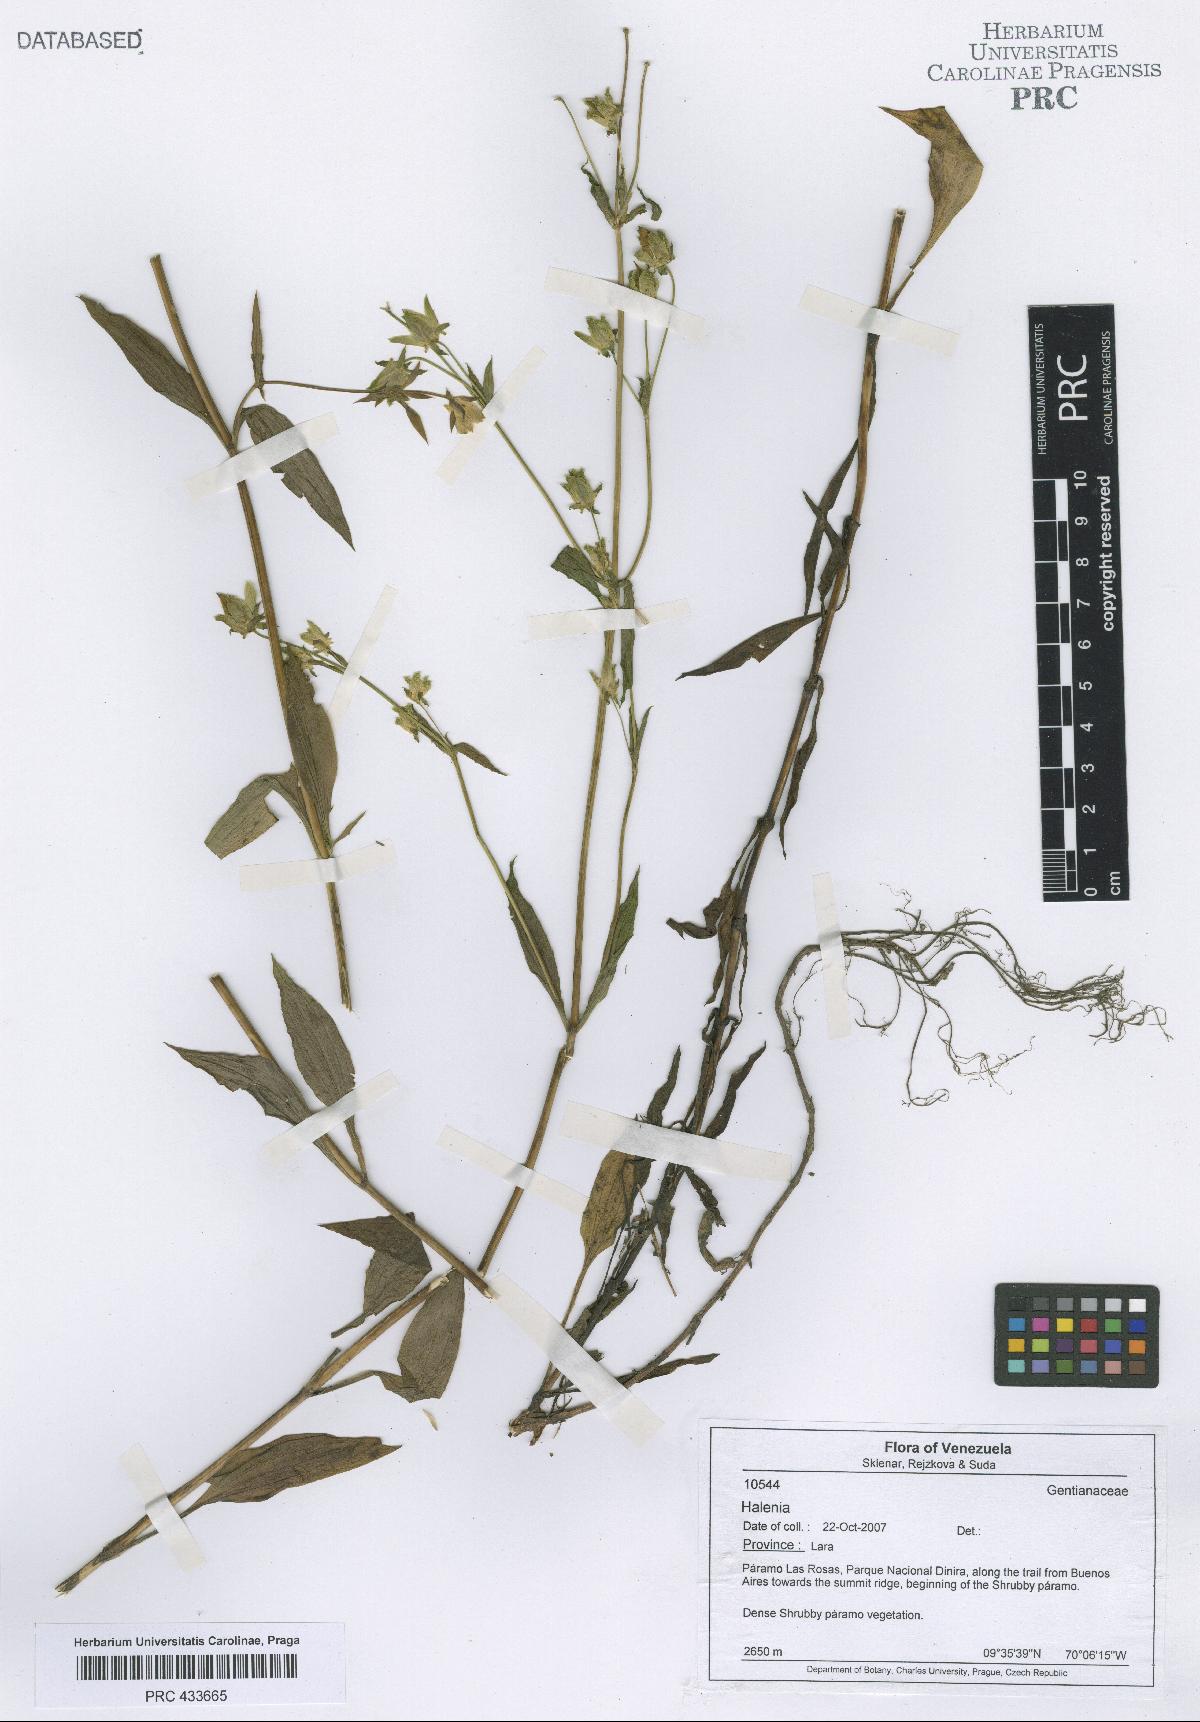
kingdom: Plantae
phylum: Tracheophyta
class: Magnoliopsida
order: Gentianales
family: Gentianaceae
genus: Halenia
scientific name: Halenia
